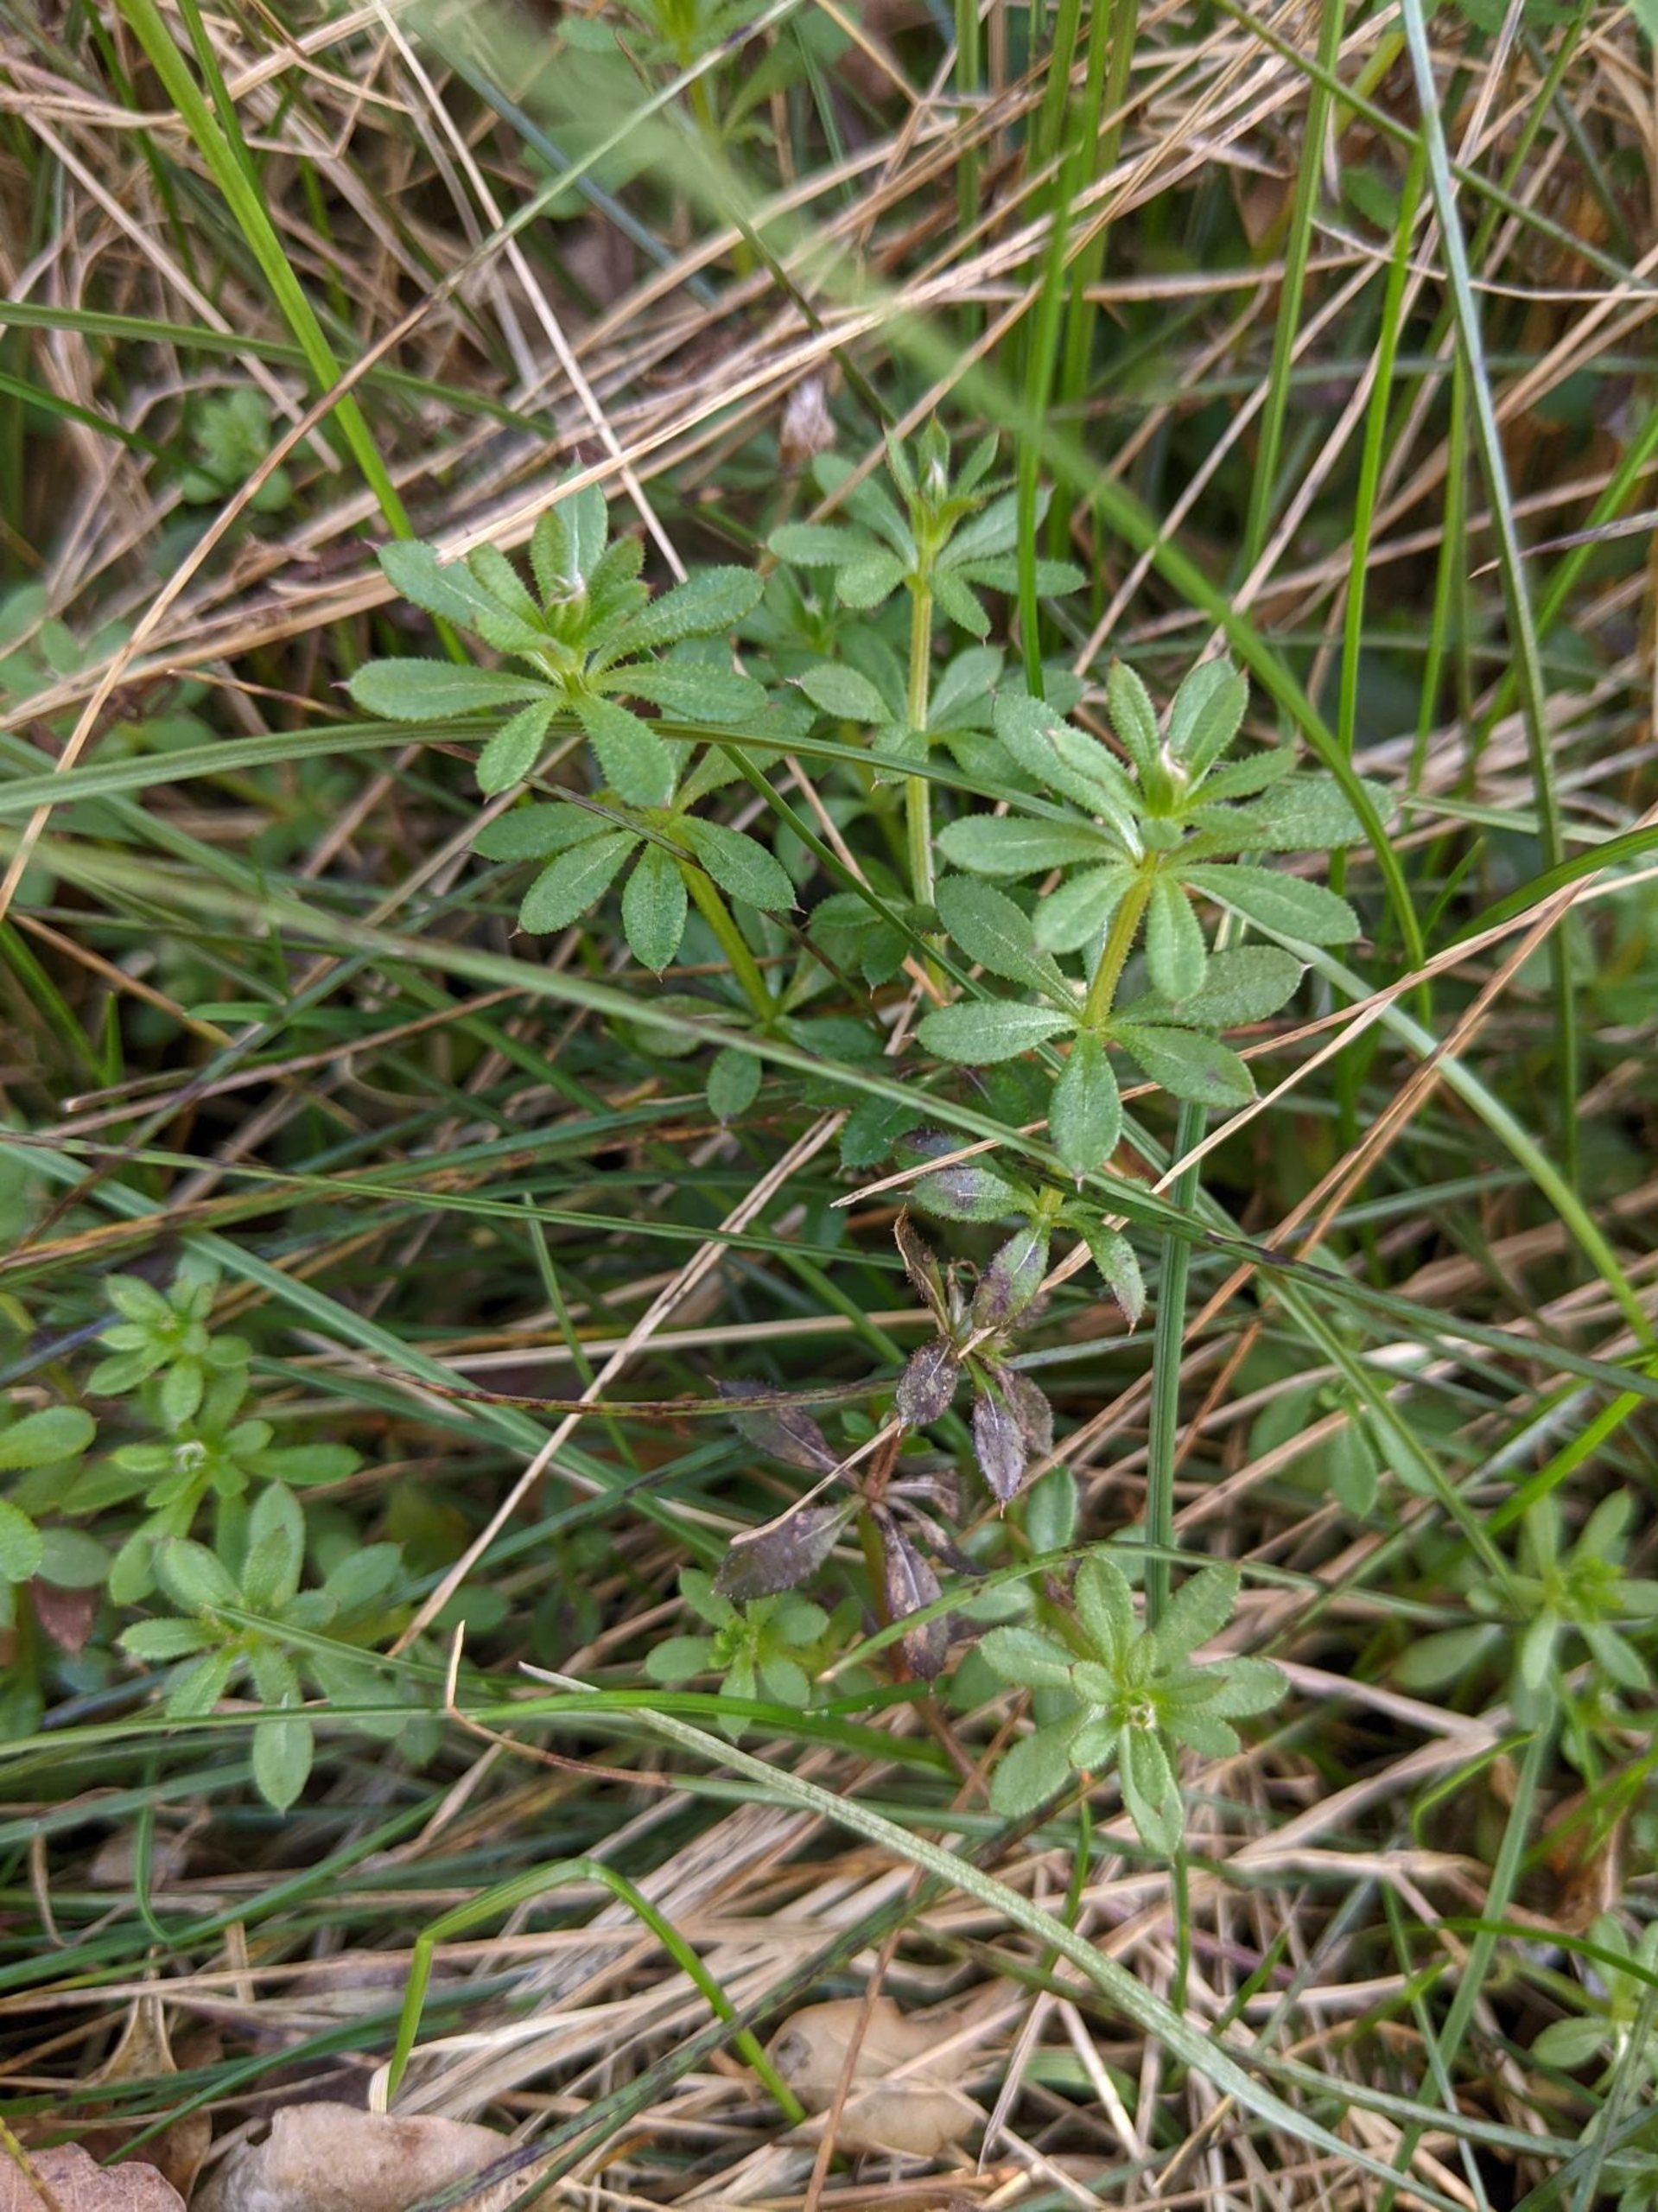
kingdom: Plantae
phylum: Tracheophyta
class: Magnoliopsida
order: Gentianales
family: Rubiaceae
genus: Galium
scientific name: Galium aparine
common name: Burre-snerre
